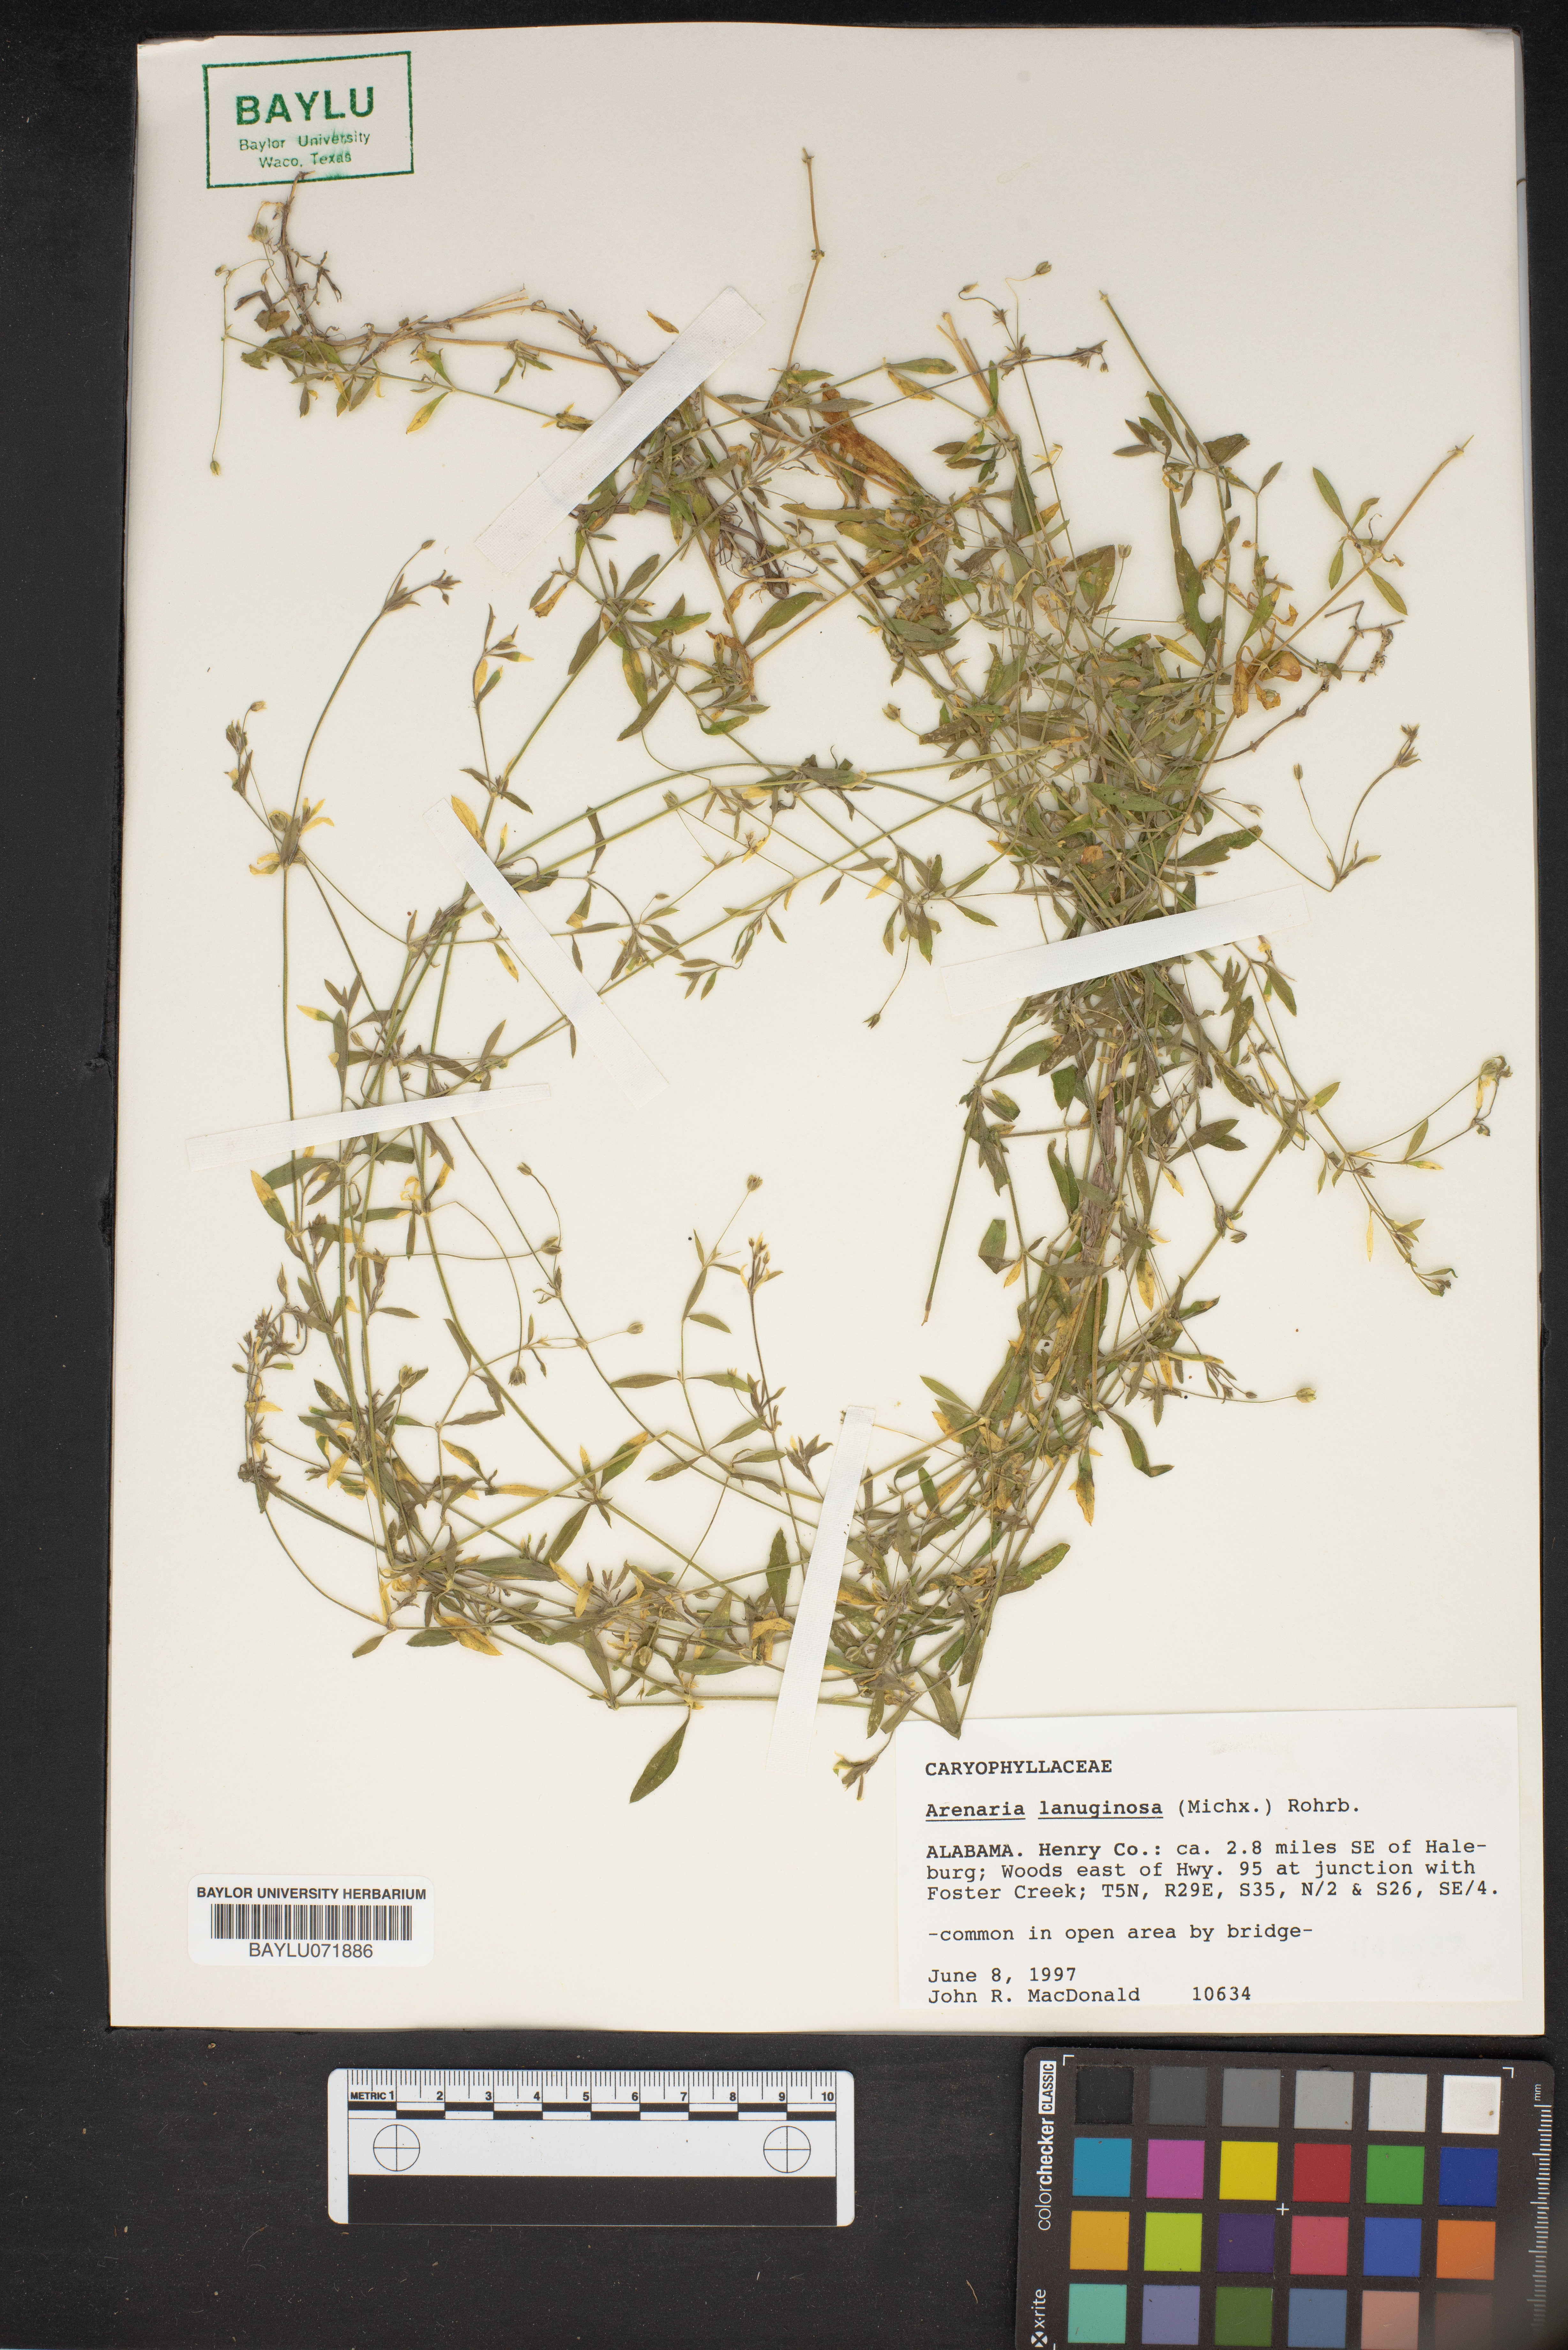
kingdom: Plantae
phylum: Tracheophyta
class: Magnoliopsida
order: Caryophyllales
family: Caryophyllaceae
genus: Arenaria
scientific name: Arenaria lanuginosa
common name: Spread sandwort
